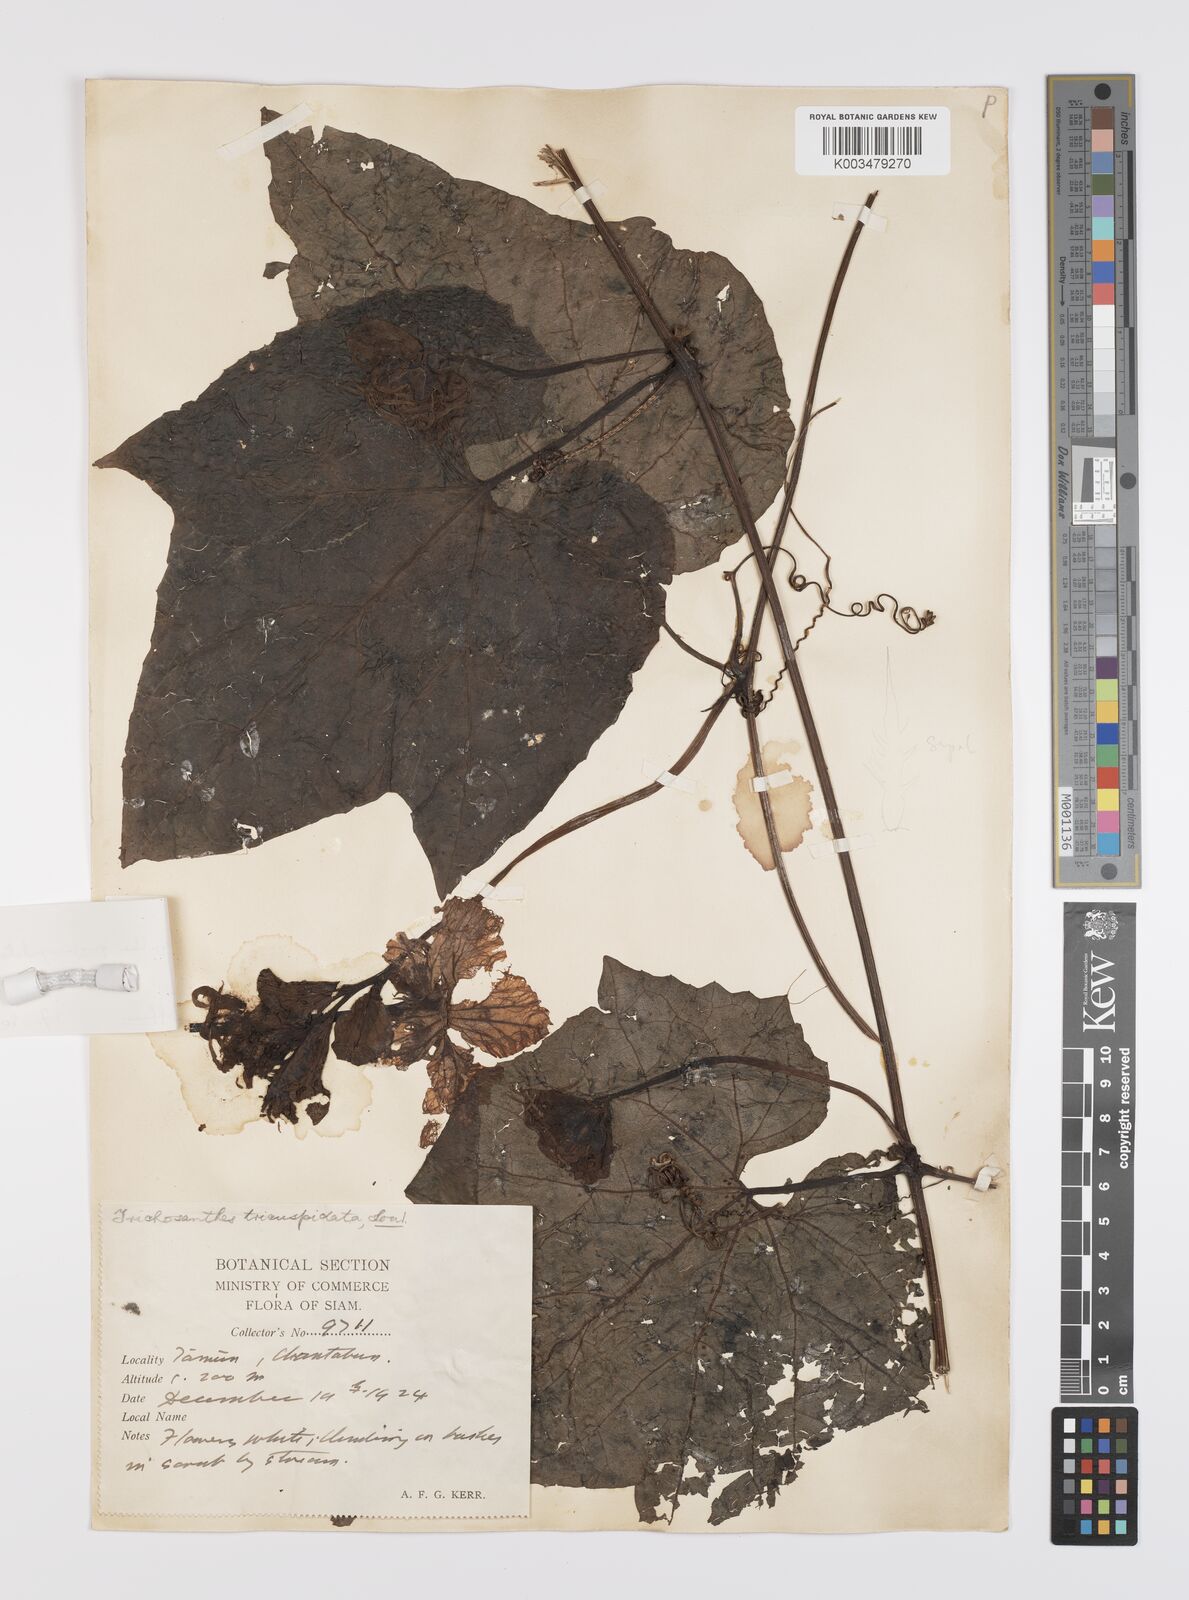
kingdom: Plantae
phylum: Tracheophyta
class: Magnoliopsida
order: Cucurbitales
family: Cucurbitaceae
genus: Trichosanthes
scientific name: Trichosanthes quinquangulata
